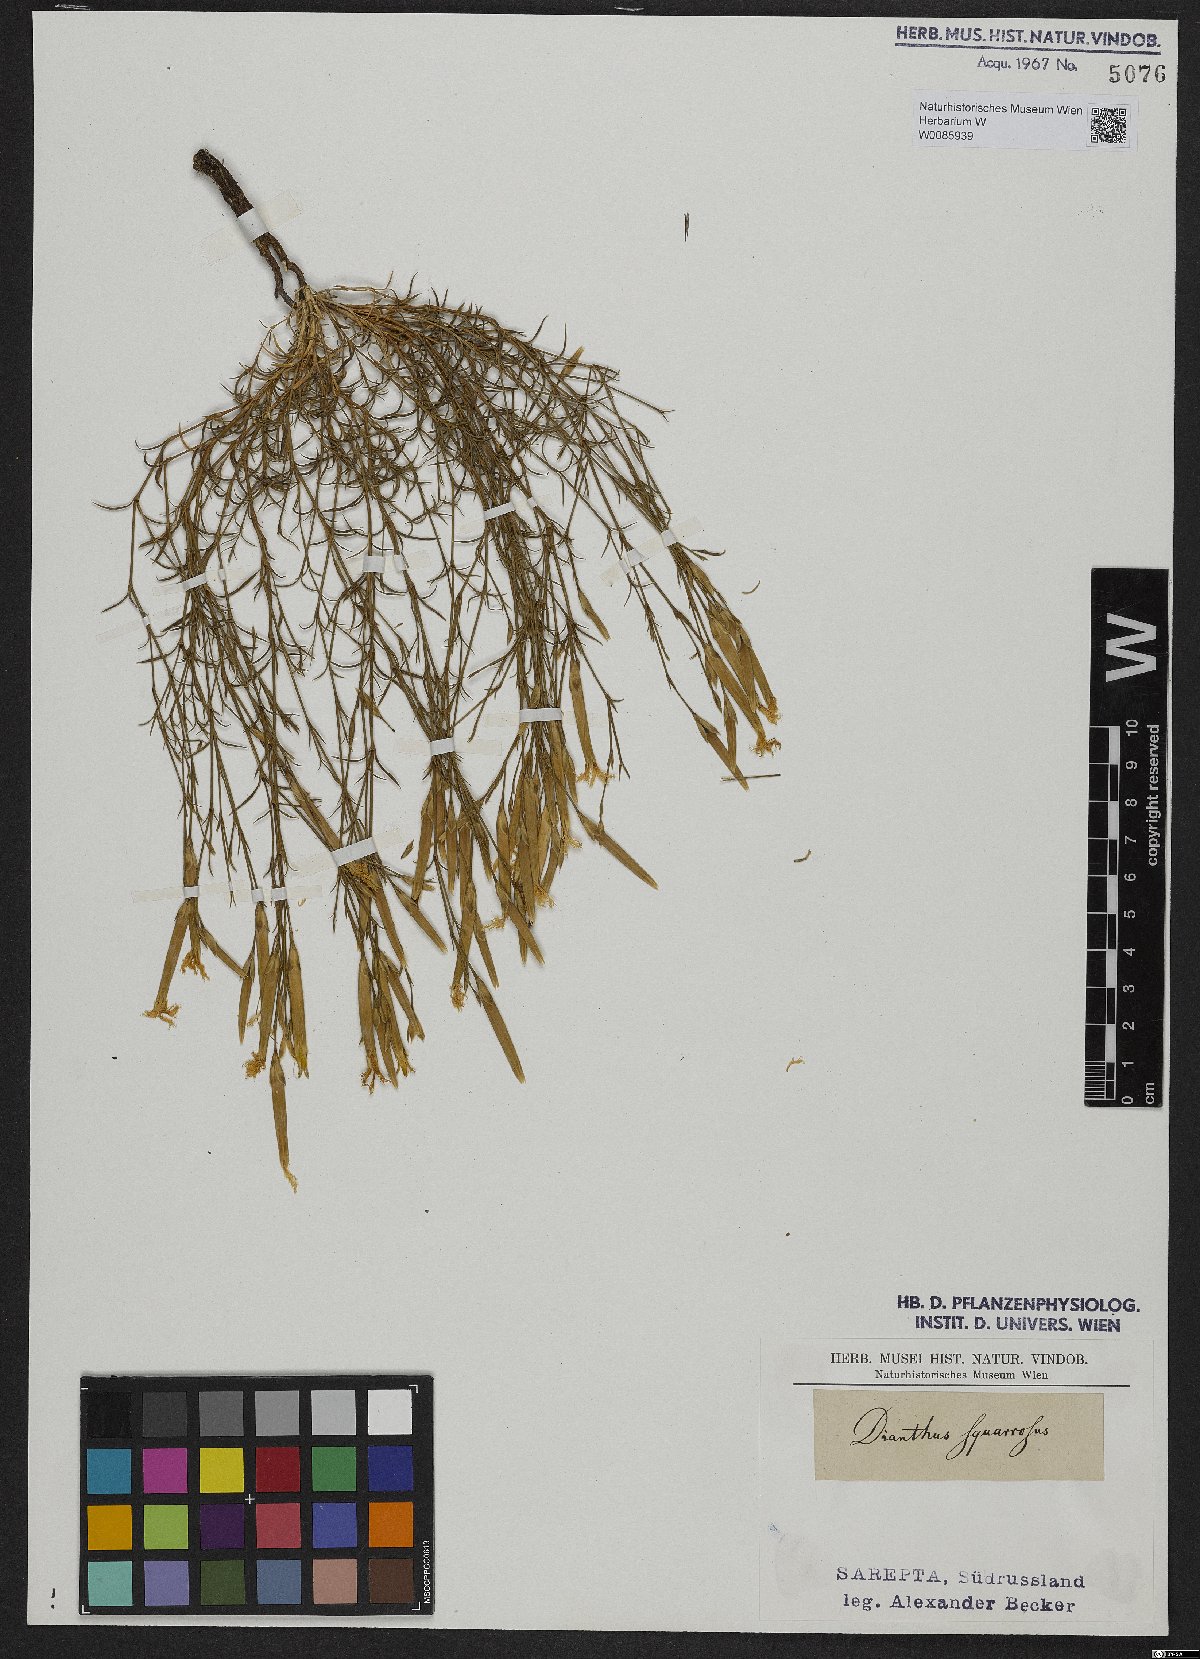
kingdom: Plantae
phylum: Tracheophyta
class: Magnoliopsida
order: Caryophyllales
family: Caryophyllaceae
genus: Dianthus
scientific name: Dianthus squarrosus
